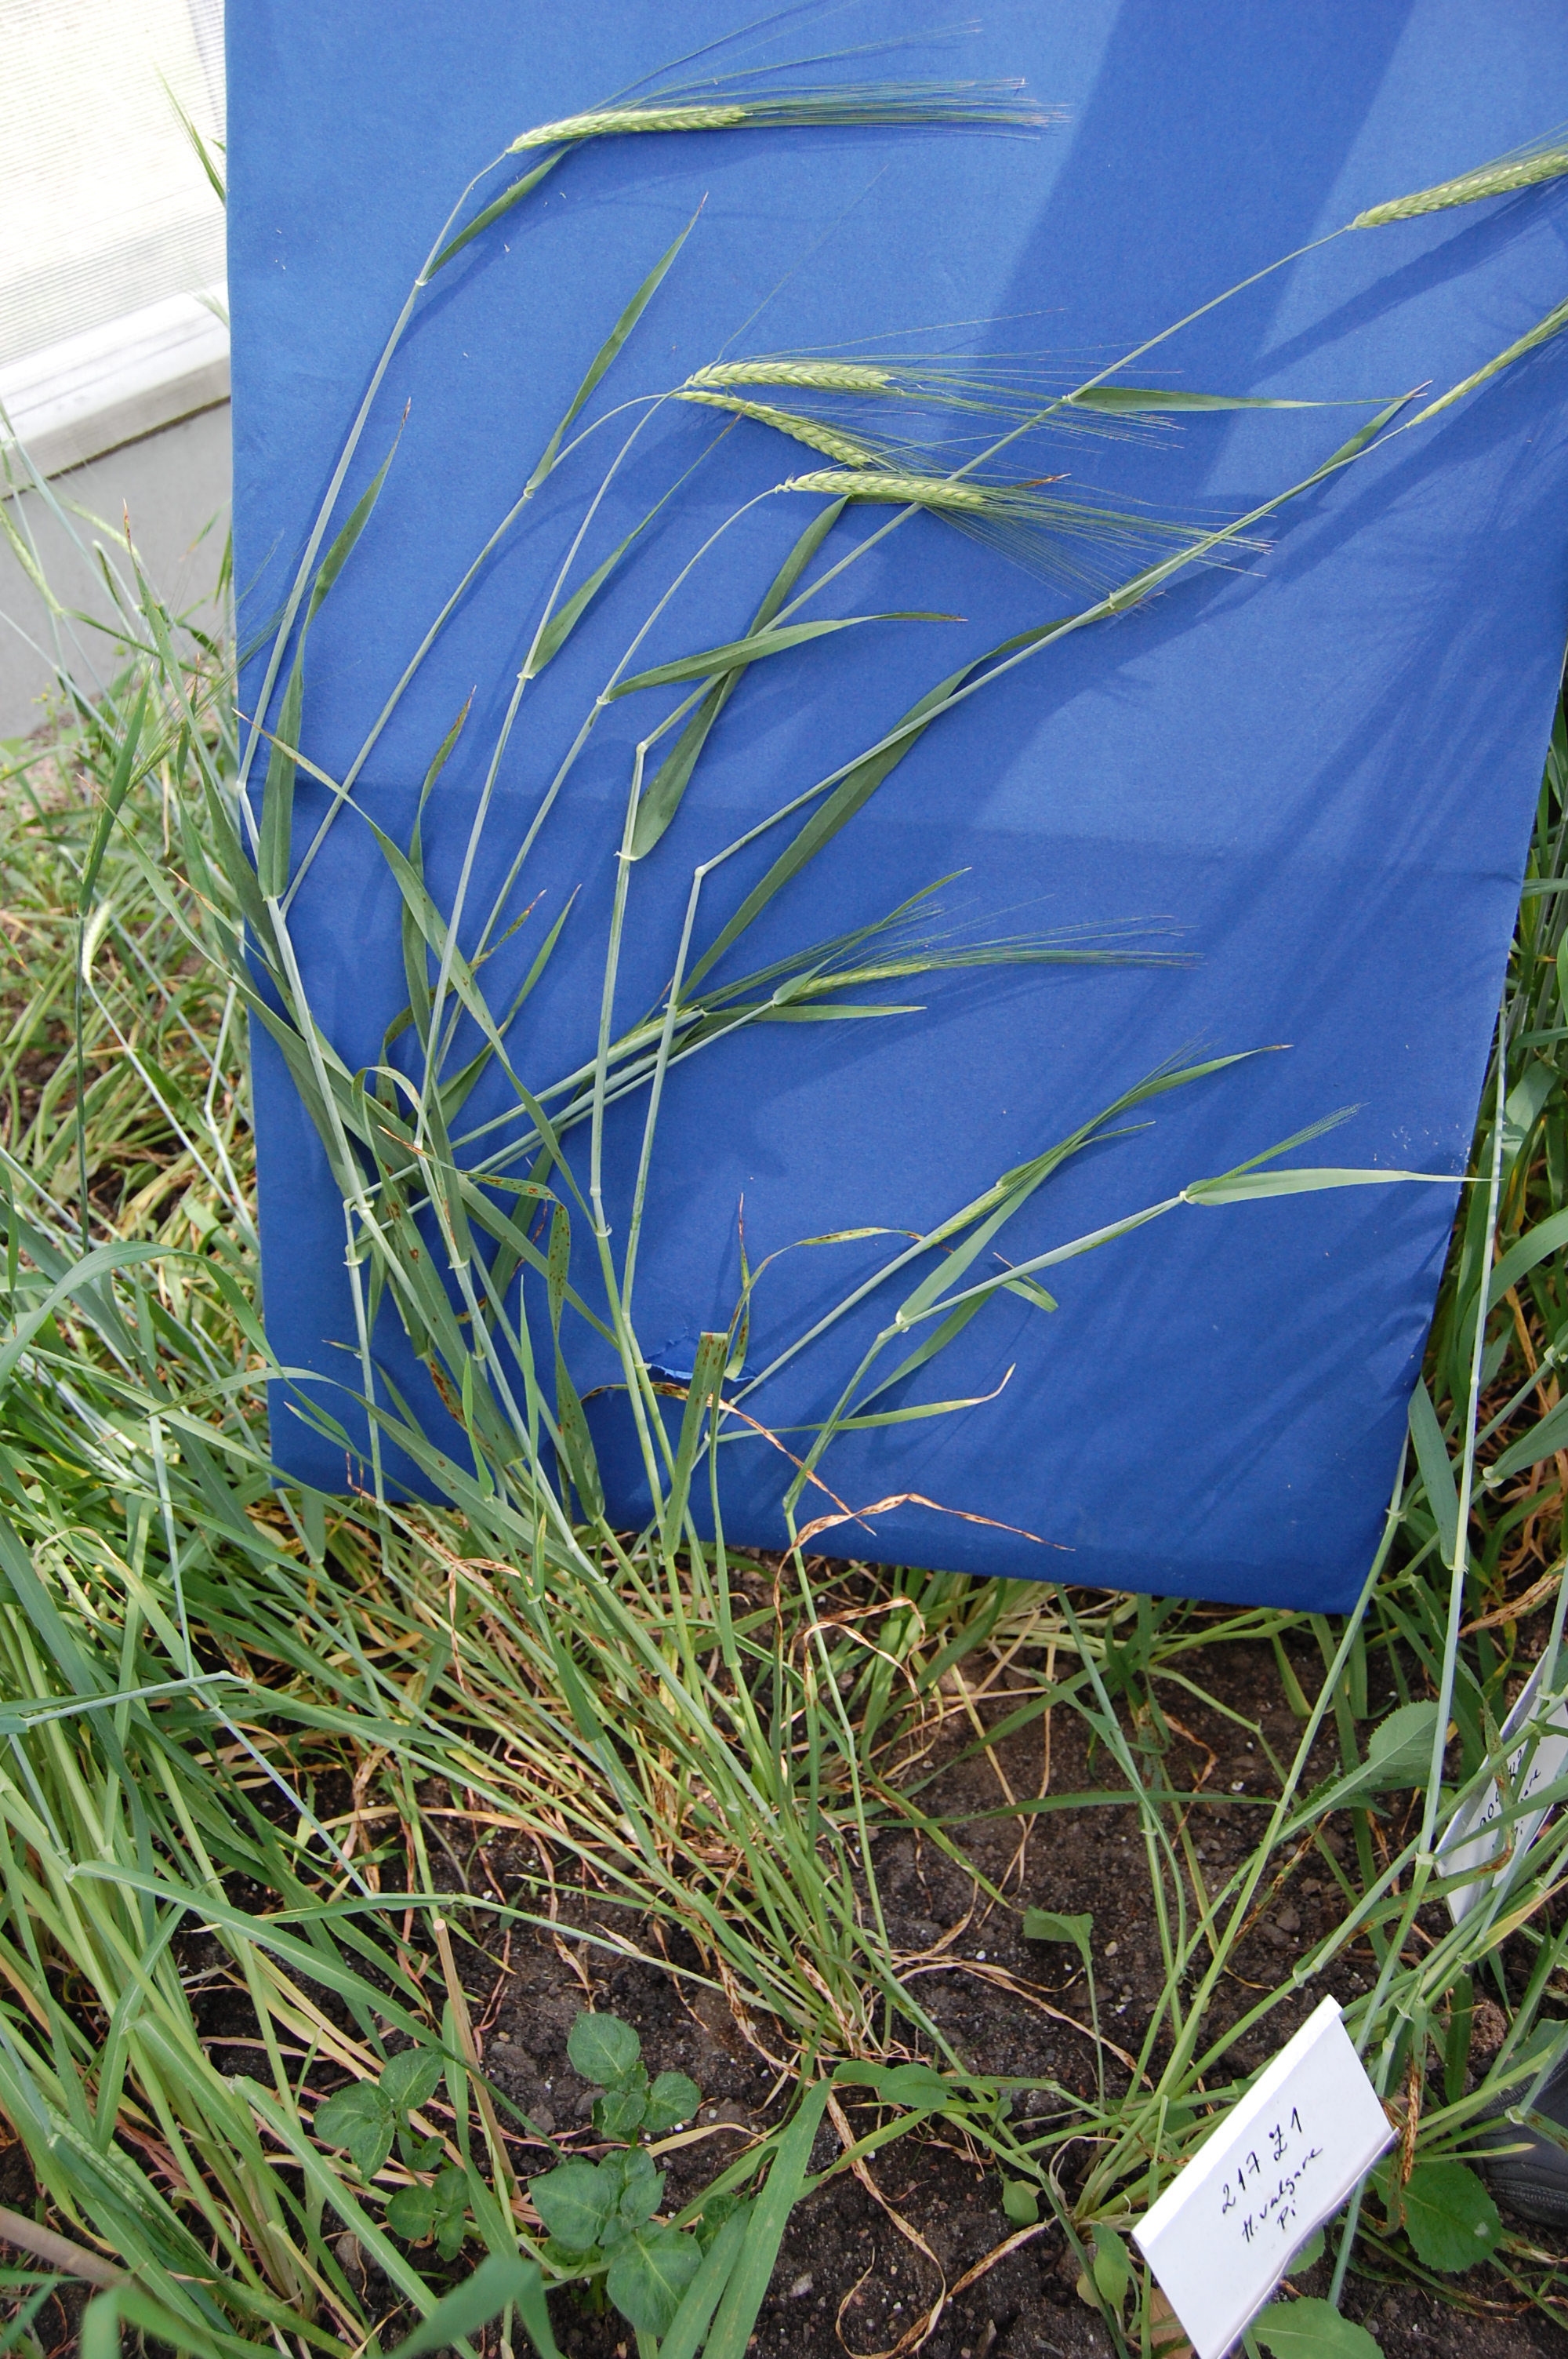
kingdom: Plantae
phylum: Tracheophyta
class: Liliopsida
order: Poales
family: Poaceae
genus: Hordeum
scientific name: Hordeum vulgare
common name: Common barley
